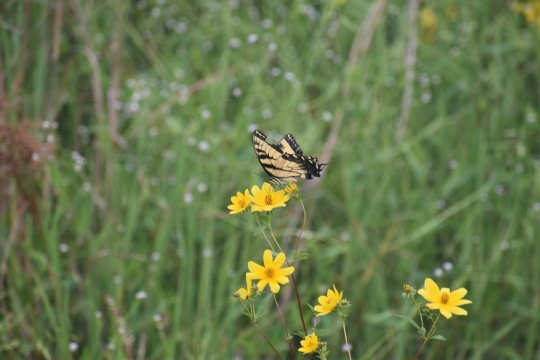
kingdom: Animalia
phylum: Arthropoda
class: Insecta
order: Lepidoptera
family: Papilionidae
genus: Pterourus
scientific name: Pterourus glaucus
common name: Eastern Tiger Swallowtail
